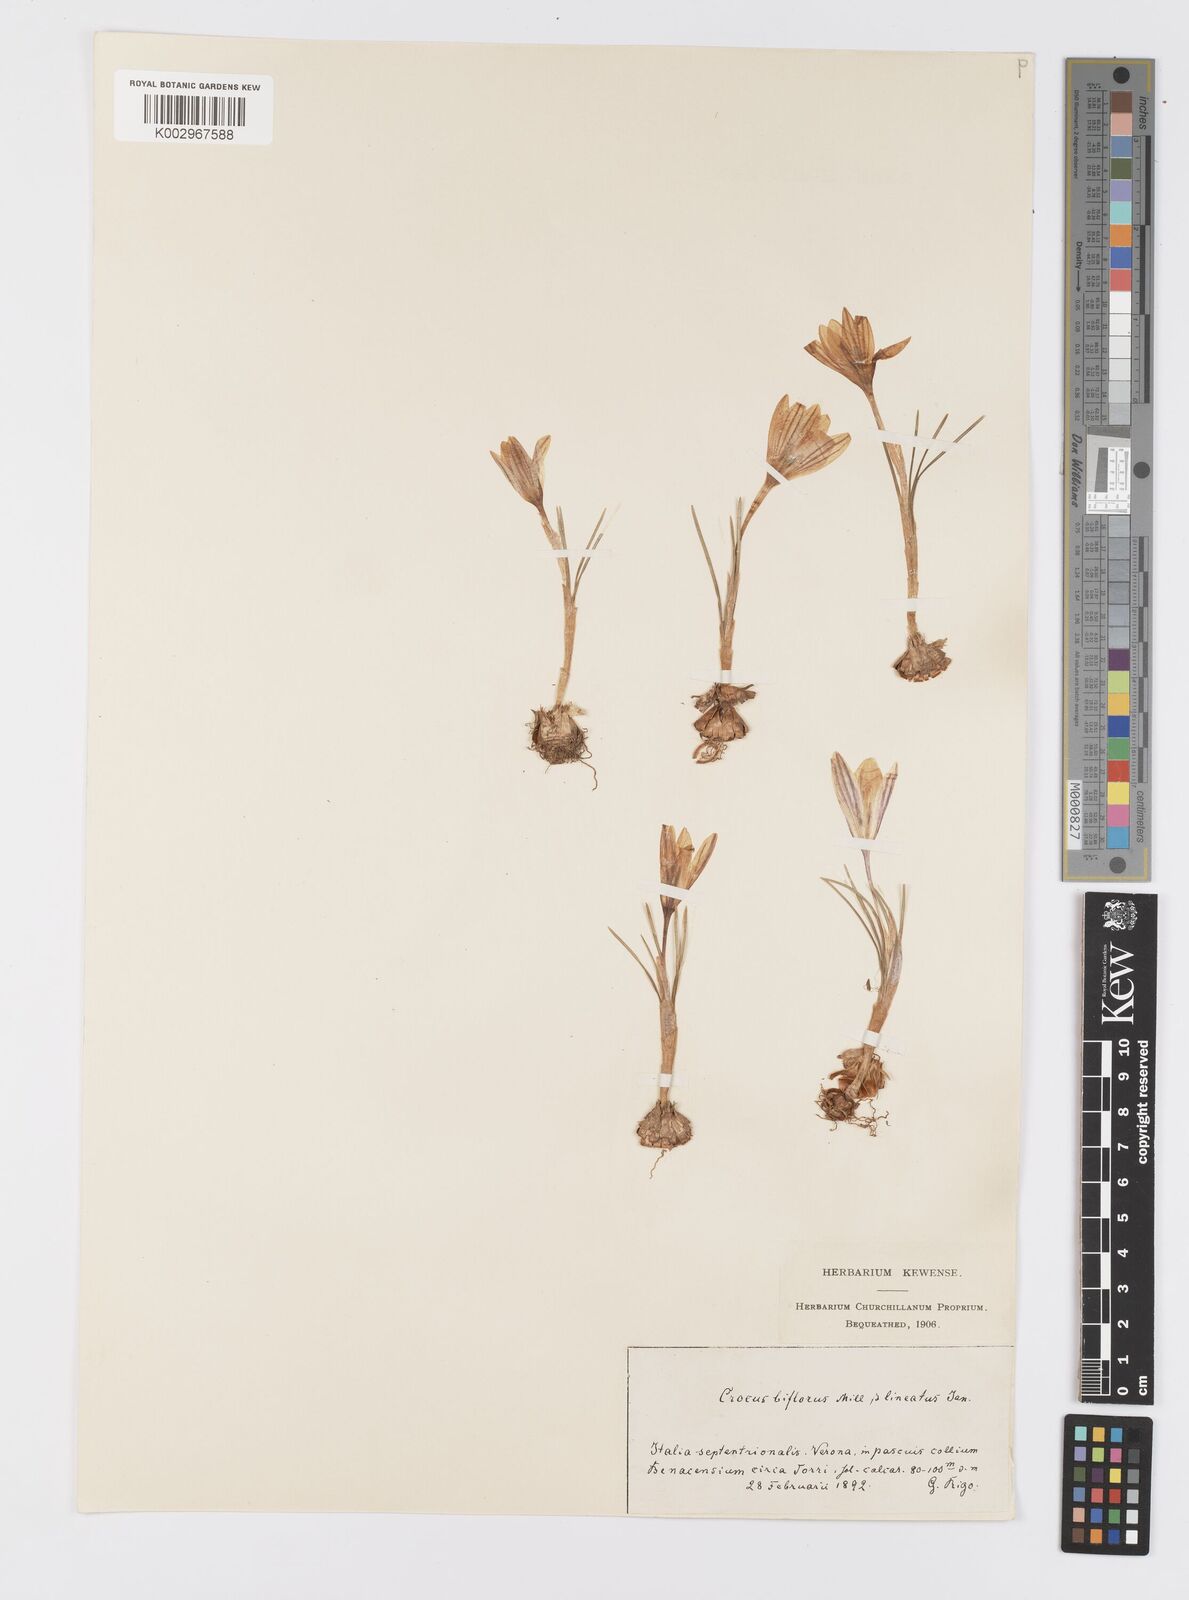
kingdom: Plantae
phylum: Tracheophyta
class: Liliopsida
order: Asparagales
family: Iridaceae
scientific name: Iridaceae
